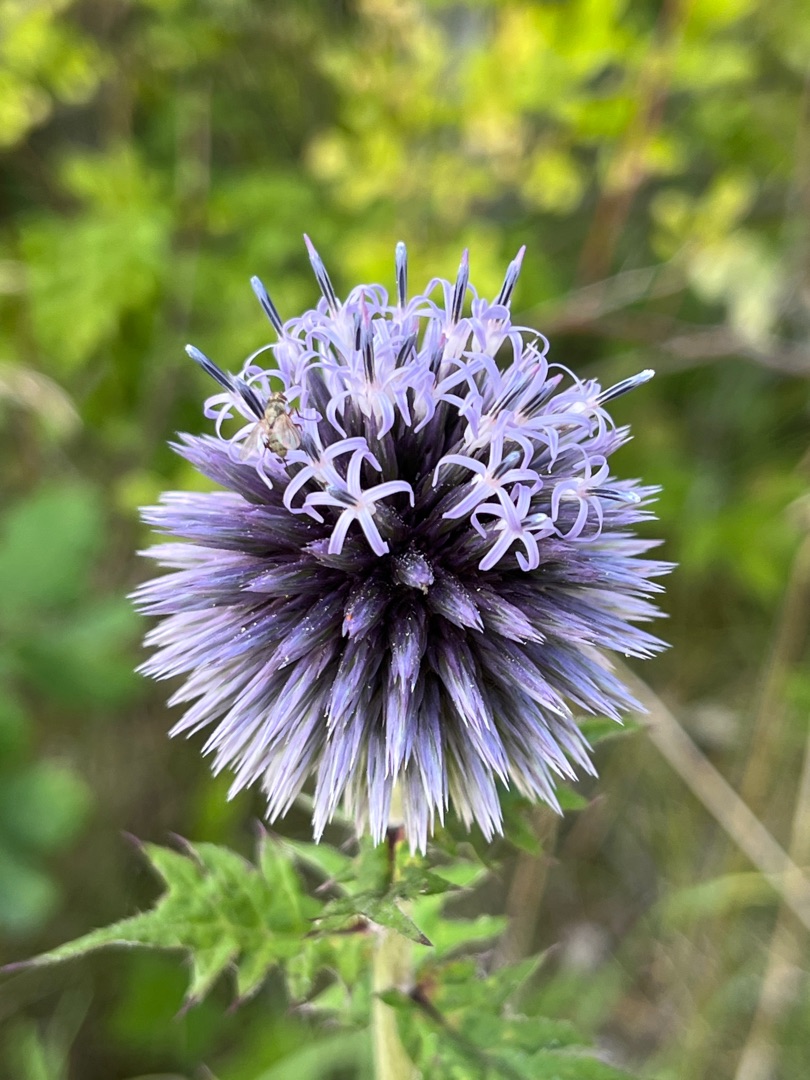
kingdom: Plantae
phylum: Tracheophyta
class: Magnoliopsida
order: Asterales
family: Asteraceae
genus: Echinops
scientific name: Echinops bannaticus
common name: Blå tidselkugle
